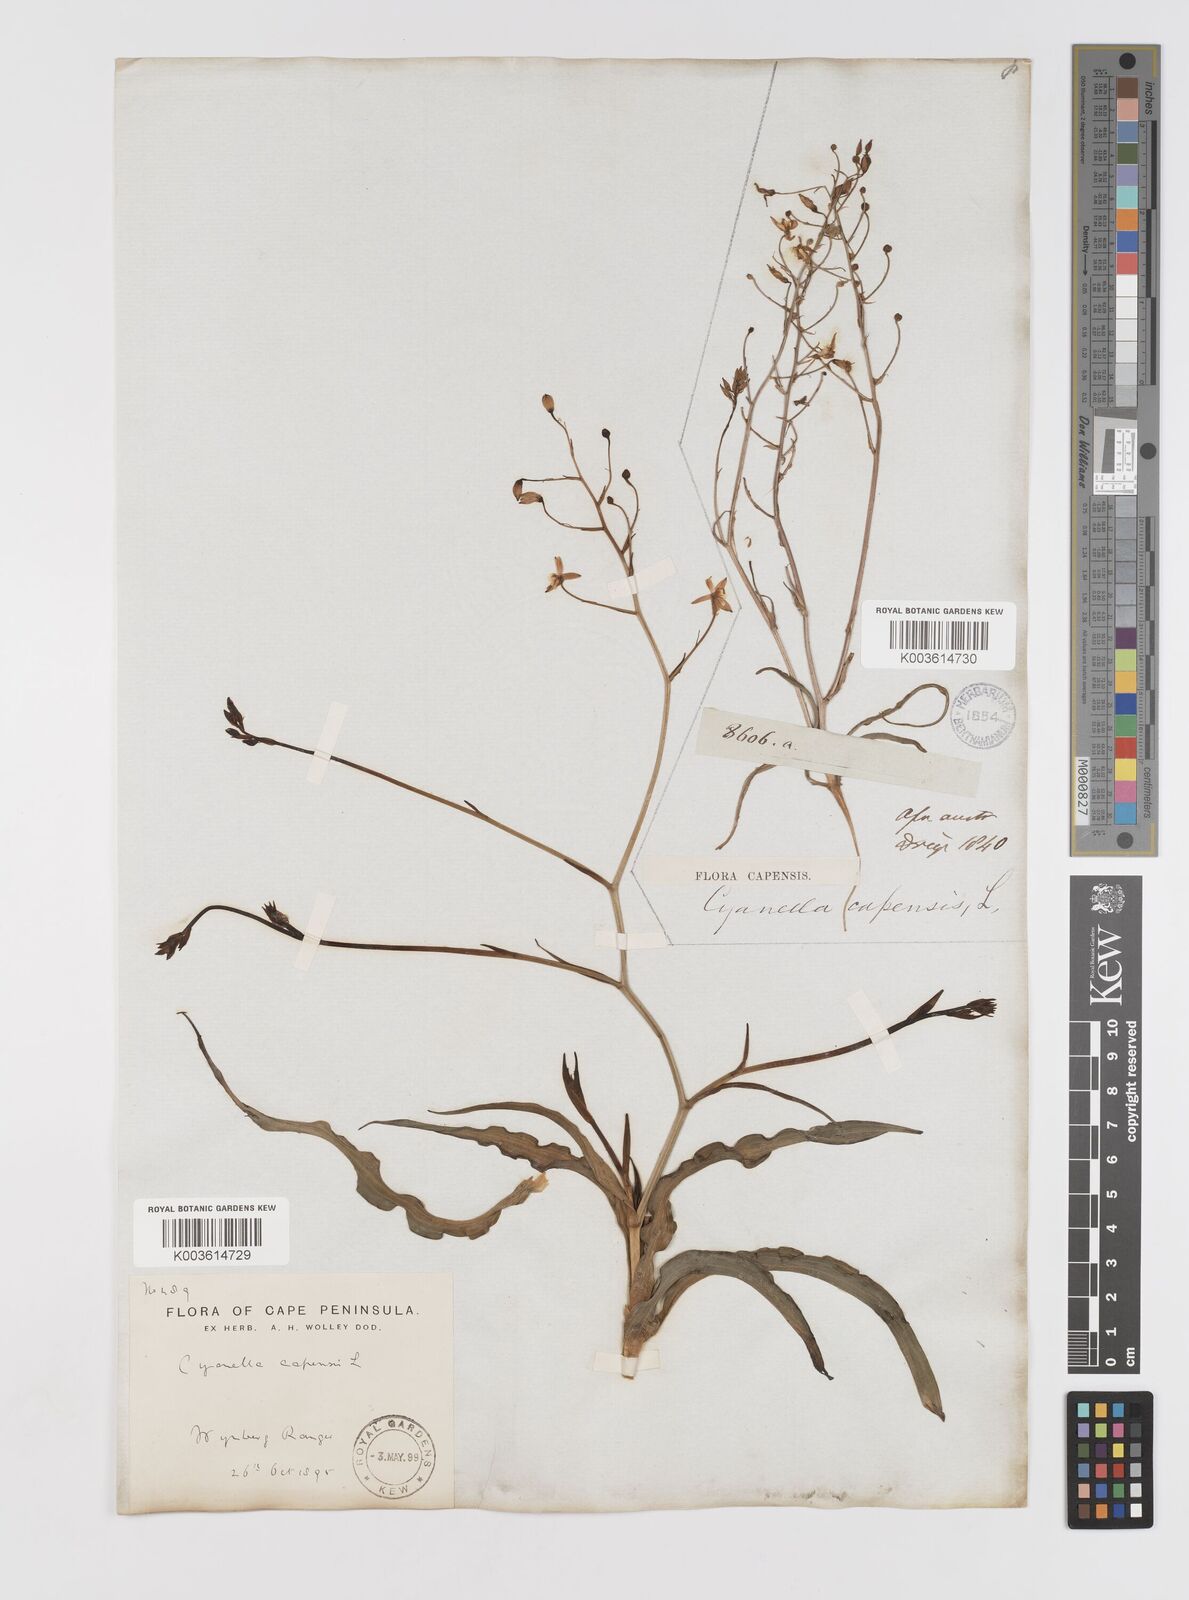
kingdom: Plantae
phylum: Tracheophyta
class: Liliopsida
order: Asparagales
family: Tecophilaeaceae
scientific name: Tecophilaeaceae
